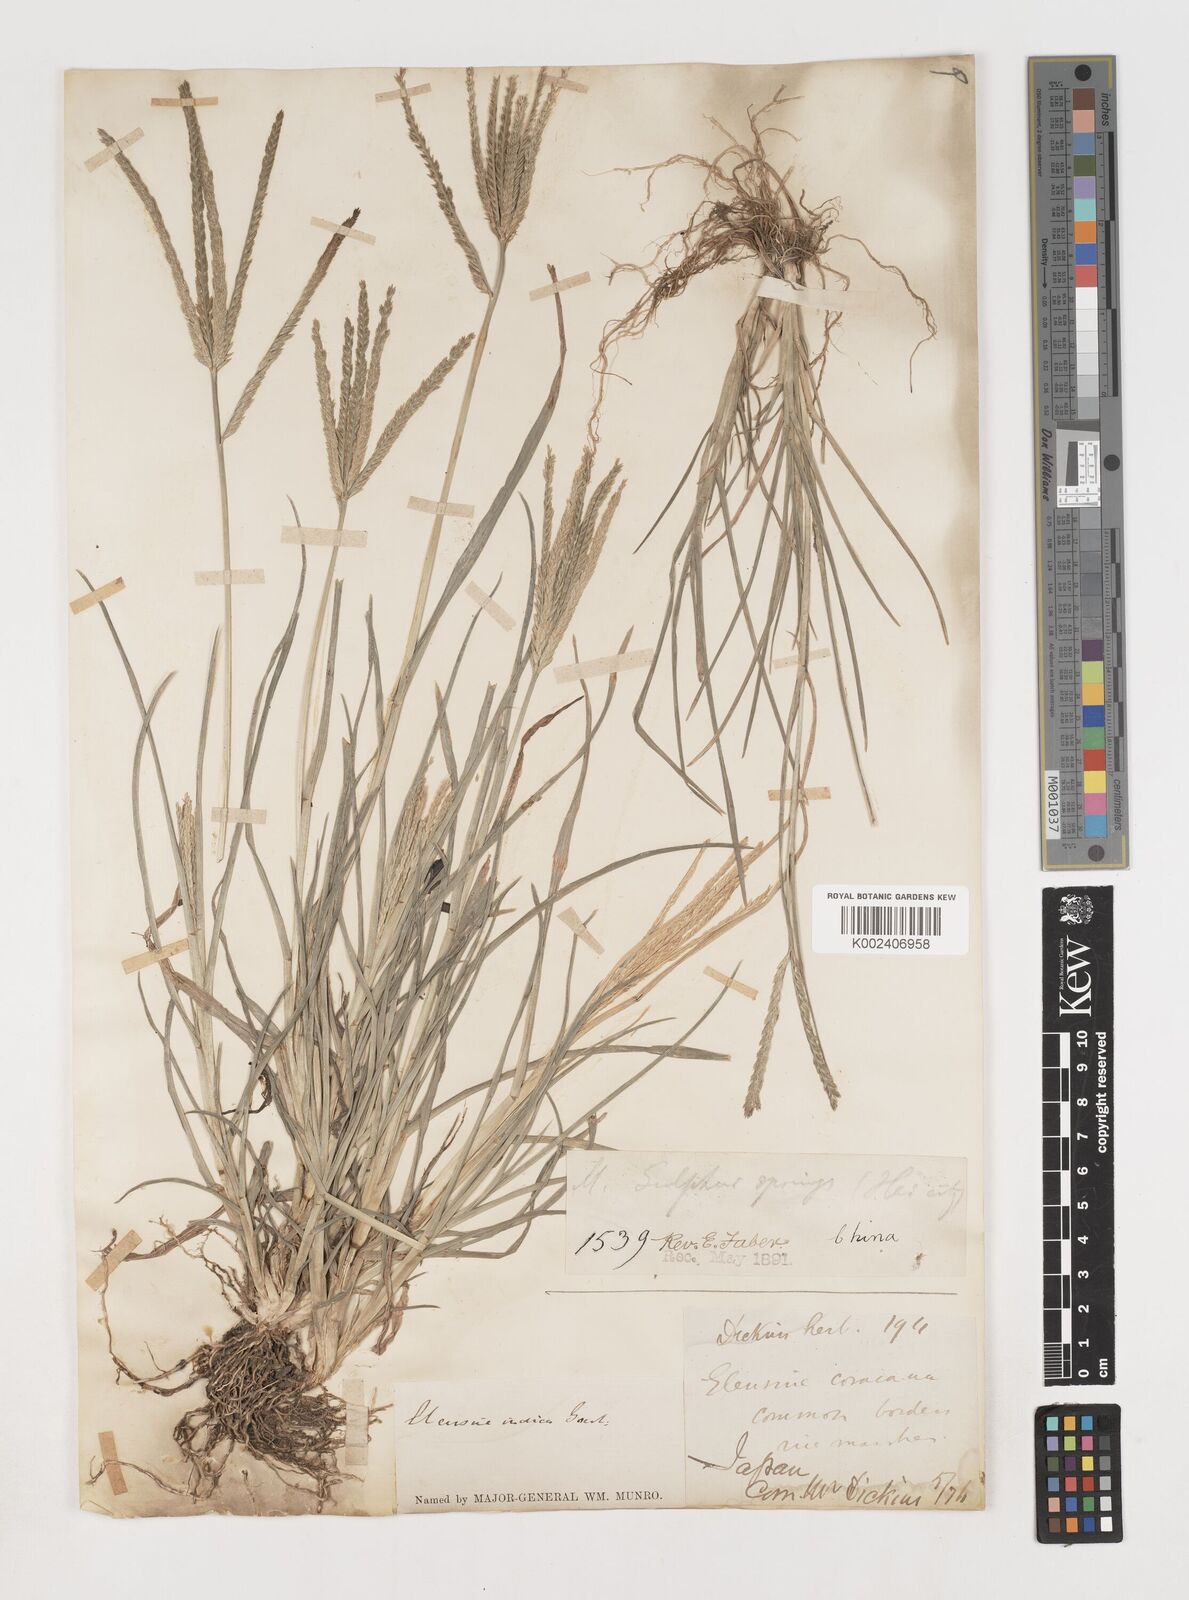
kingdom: Plantae
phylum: Tracheophyta
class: Liliopsida
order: Poales
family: Poaceae
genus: Eleusine
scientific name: Eleusine indica
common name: Yard-grass
